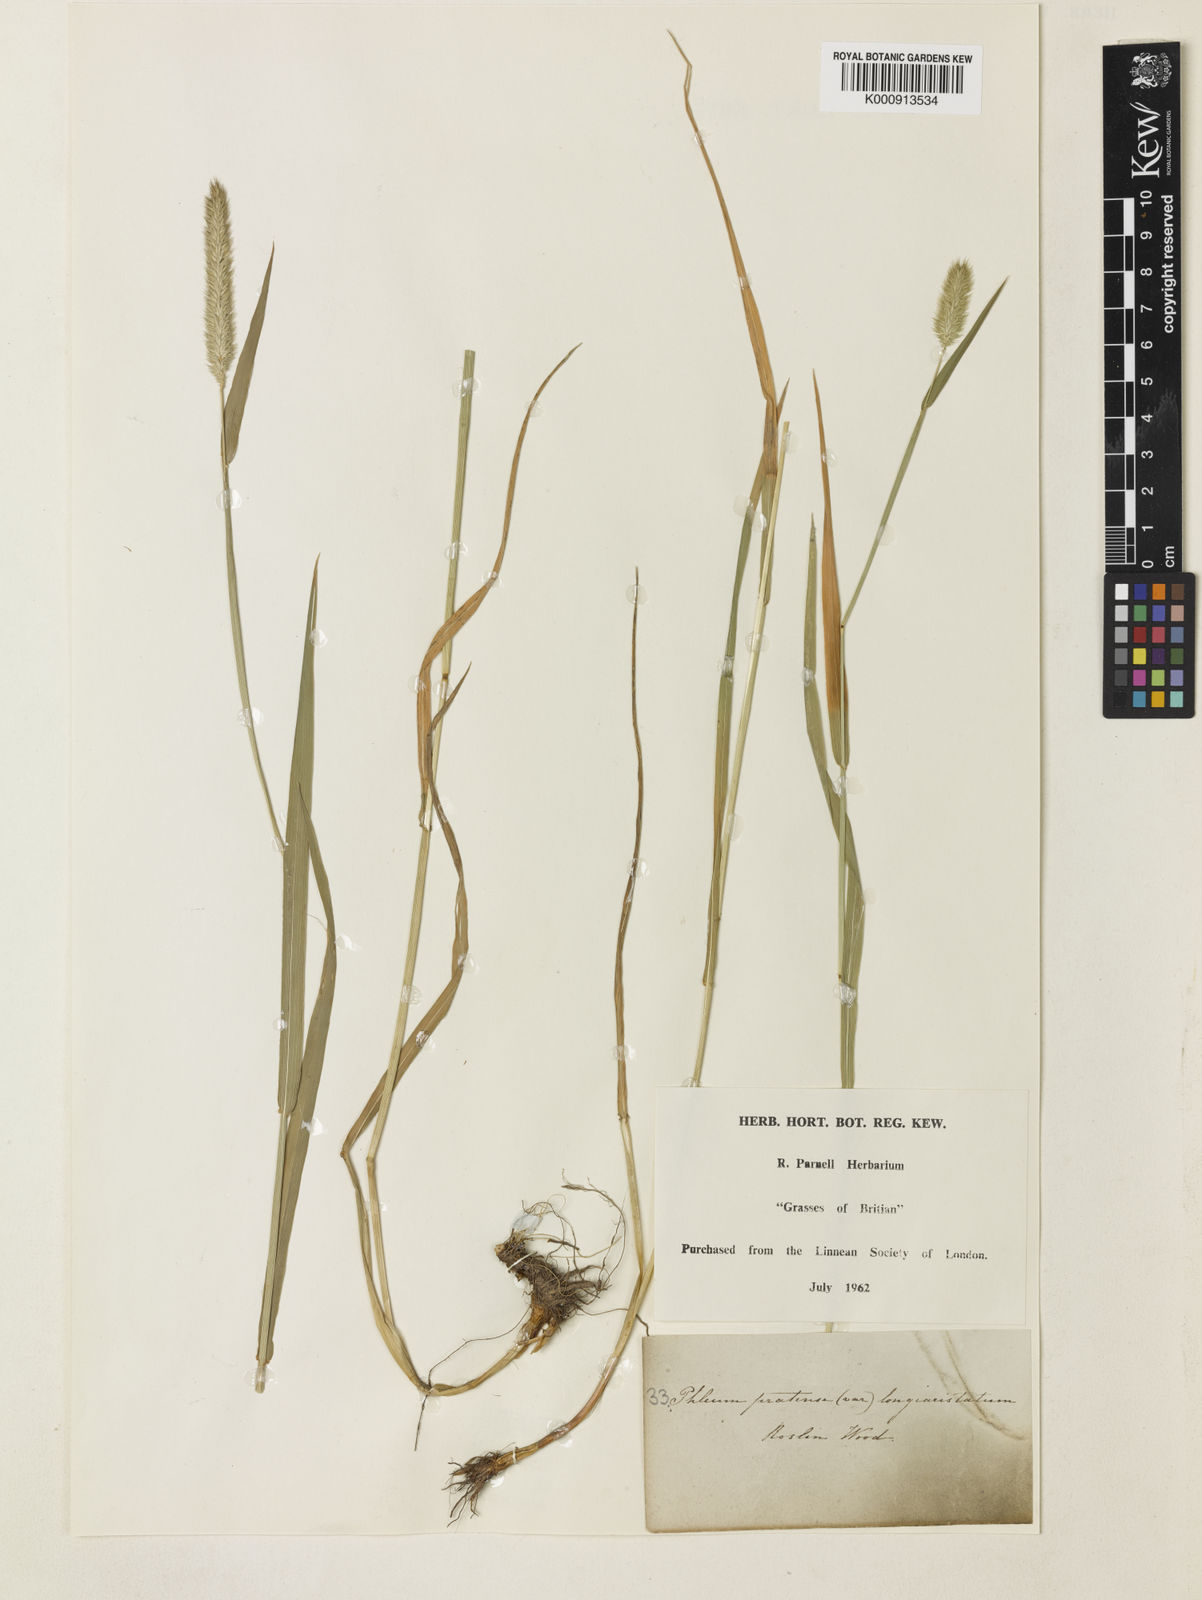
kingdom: Plantae
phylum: Tracheophyta
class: Liliopsida
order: Poales
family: Poaceae
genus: Phleum
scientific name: Phleum pratense
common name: Timothy grass
